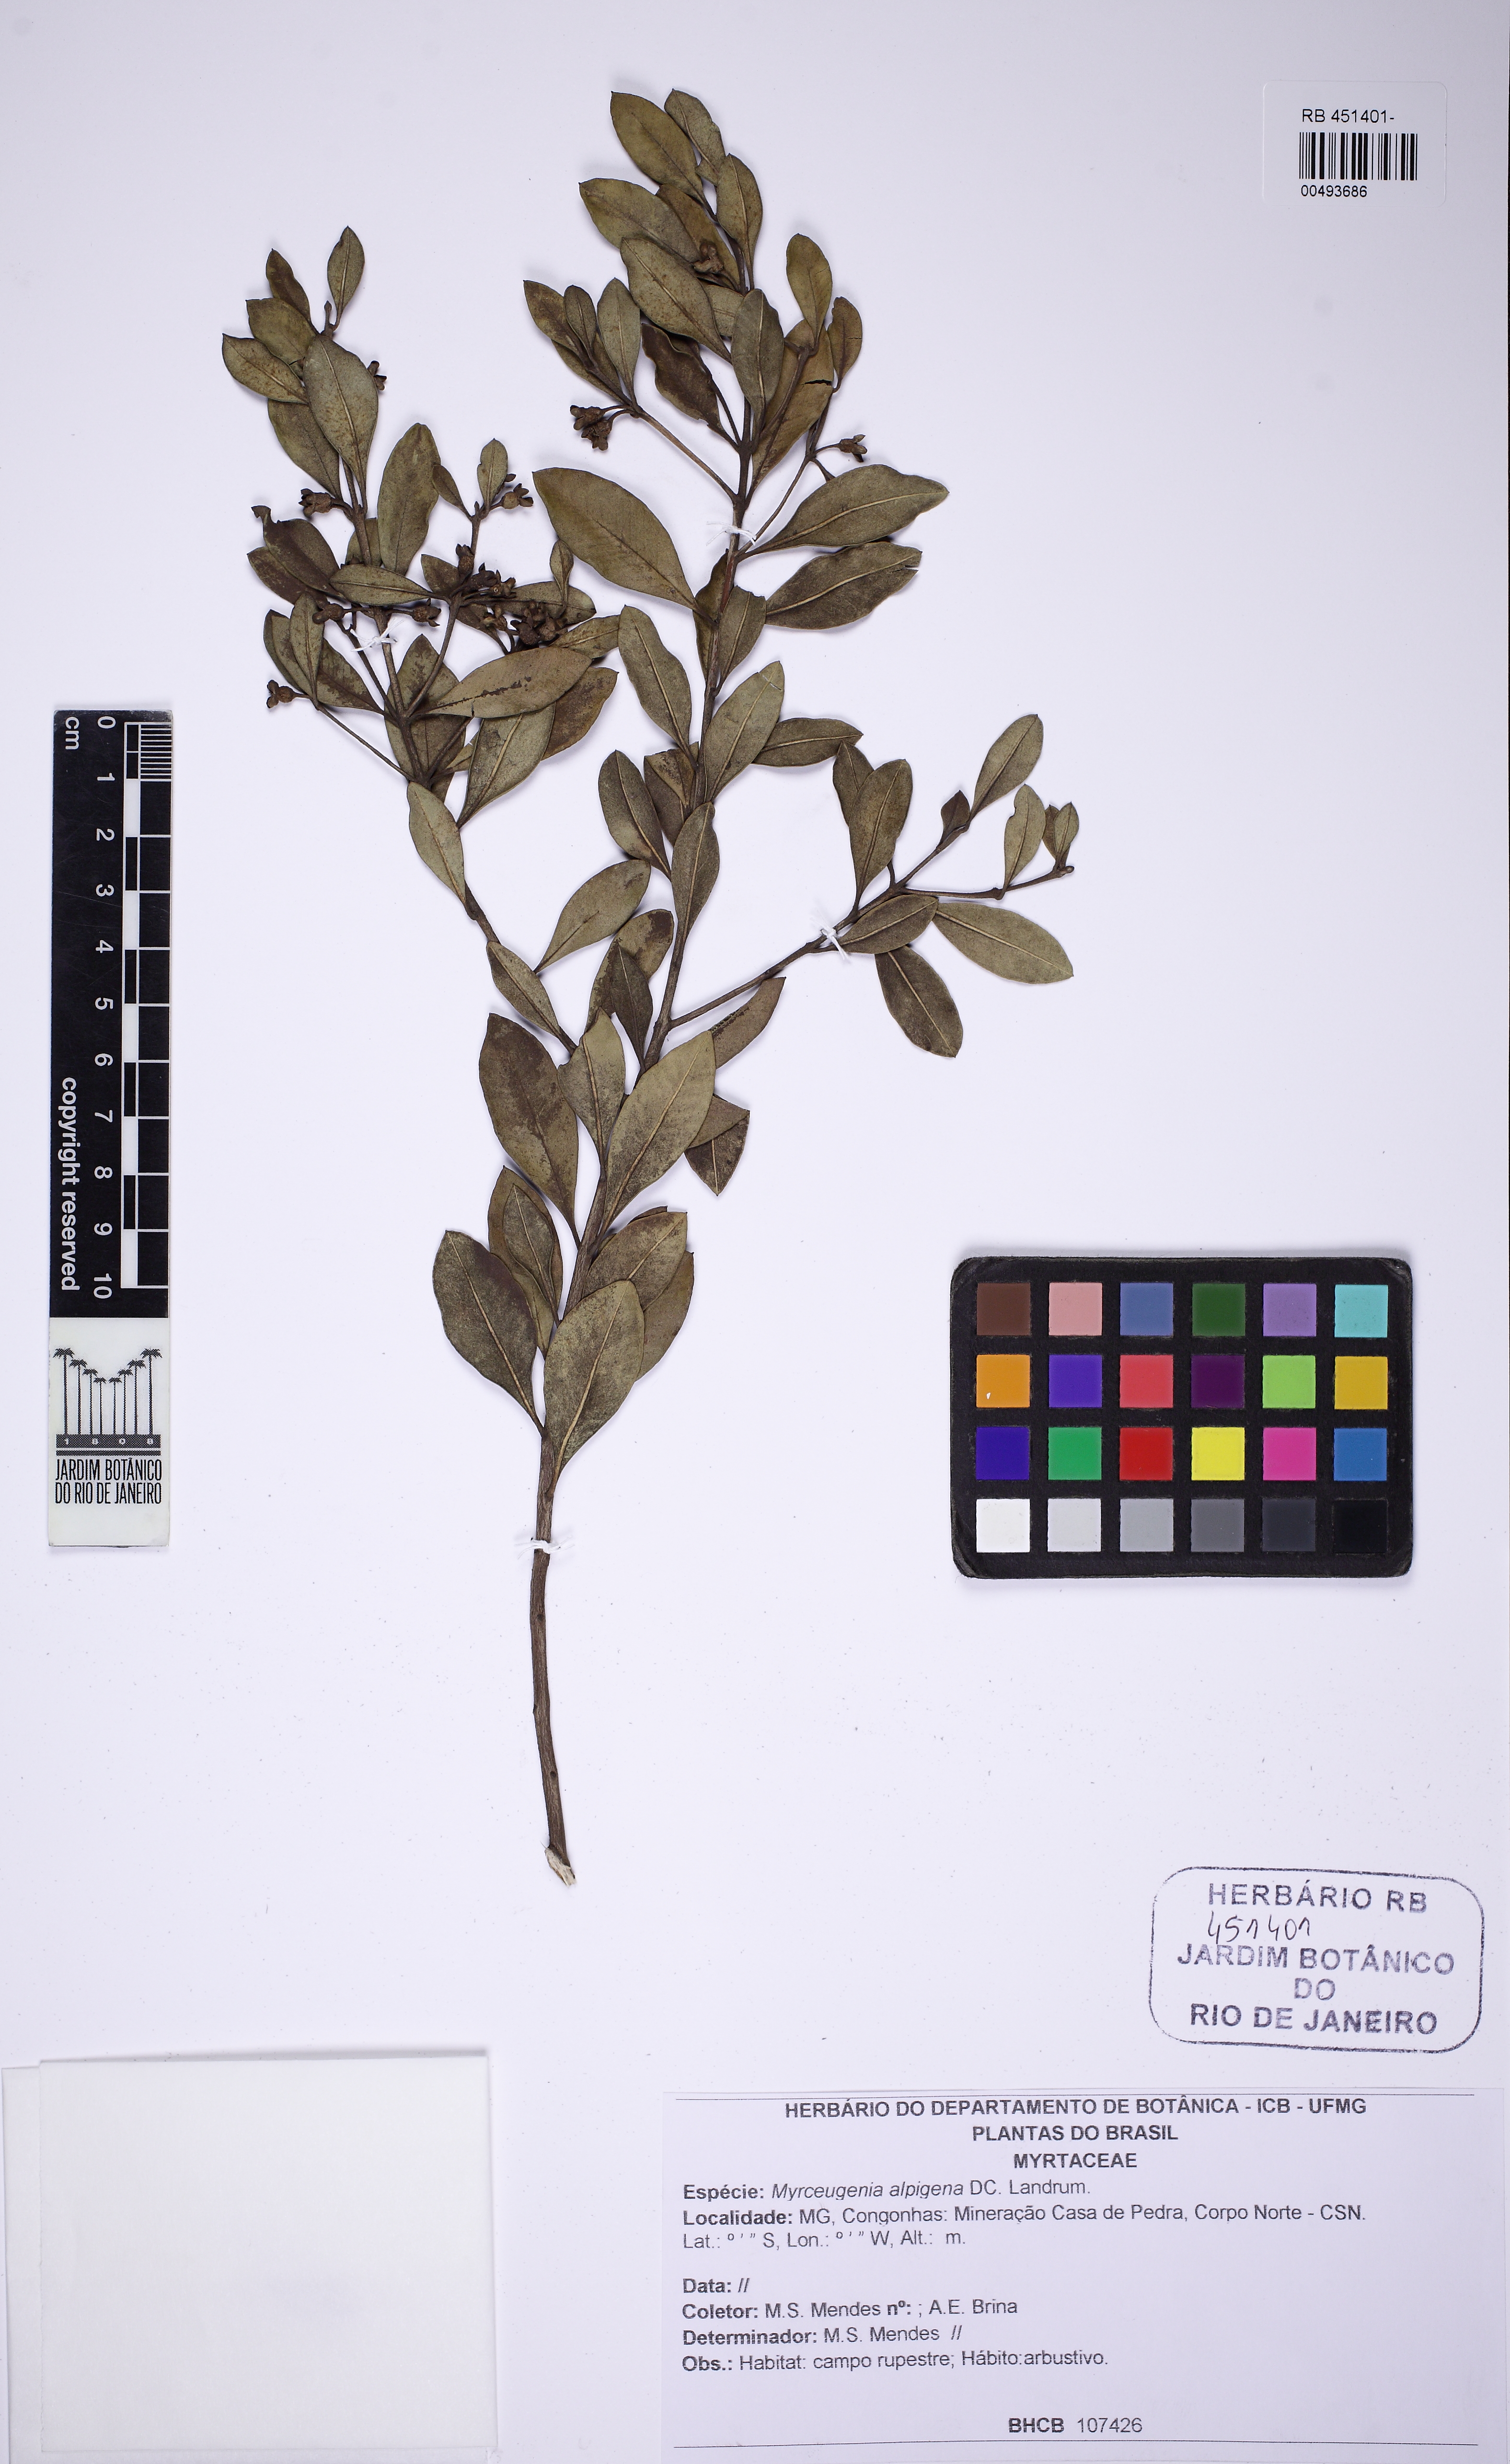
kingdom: Plantae
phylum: Tracheophyta
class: Magnoliopsida
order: Myrtales
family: Myrtaceae
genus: Myrceugenia
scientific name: Myrceugenia alpigena
